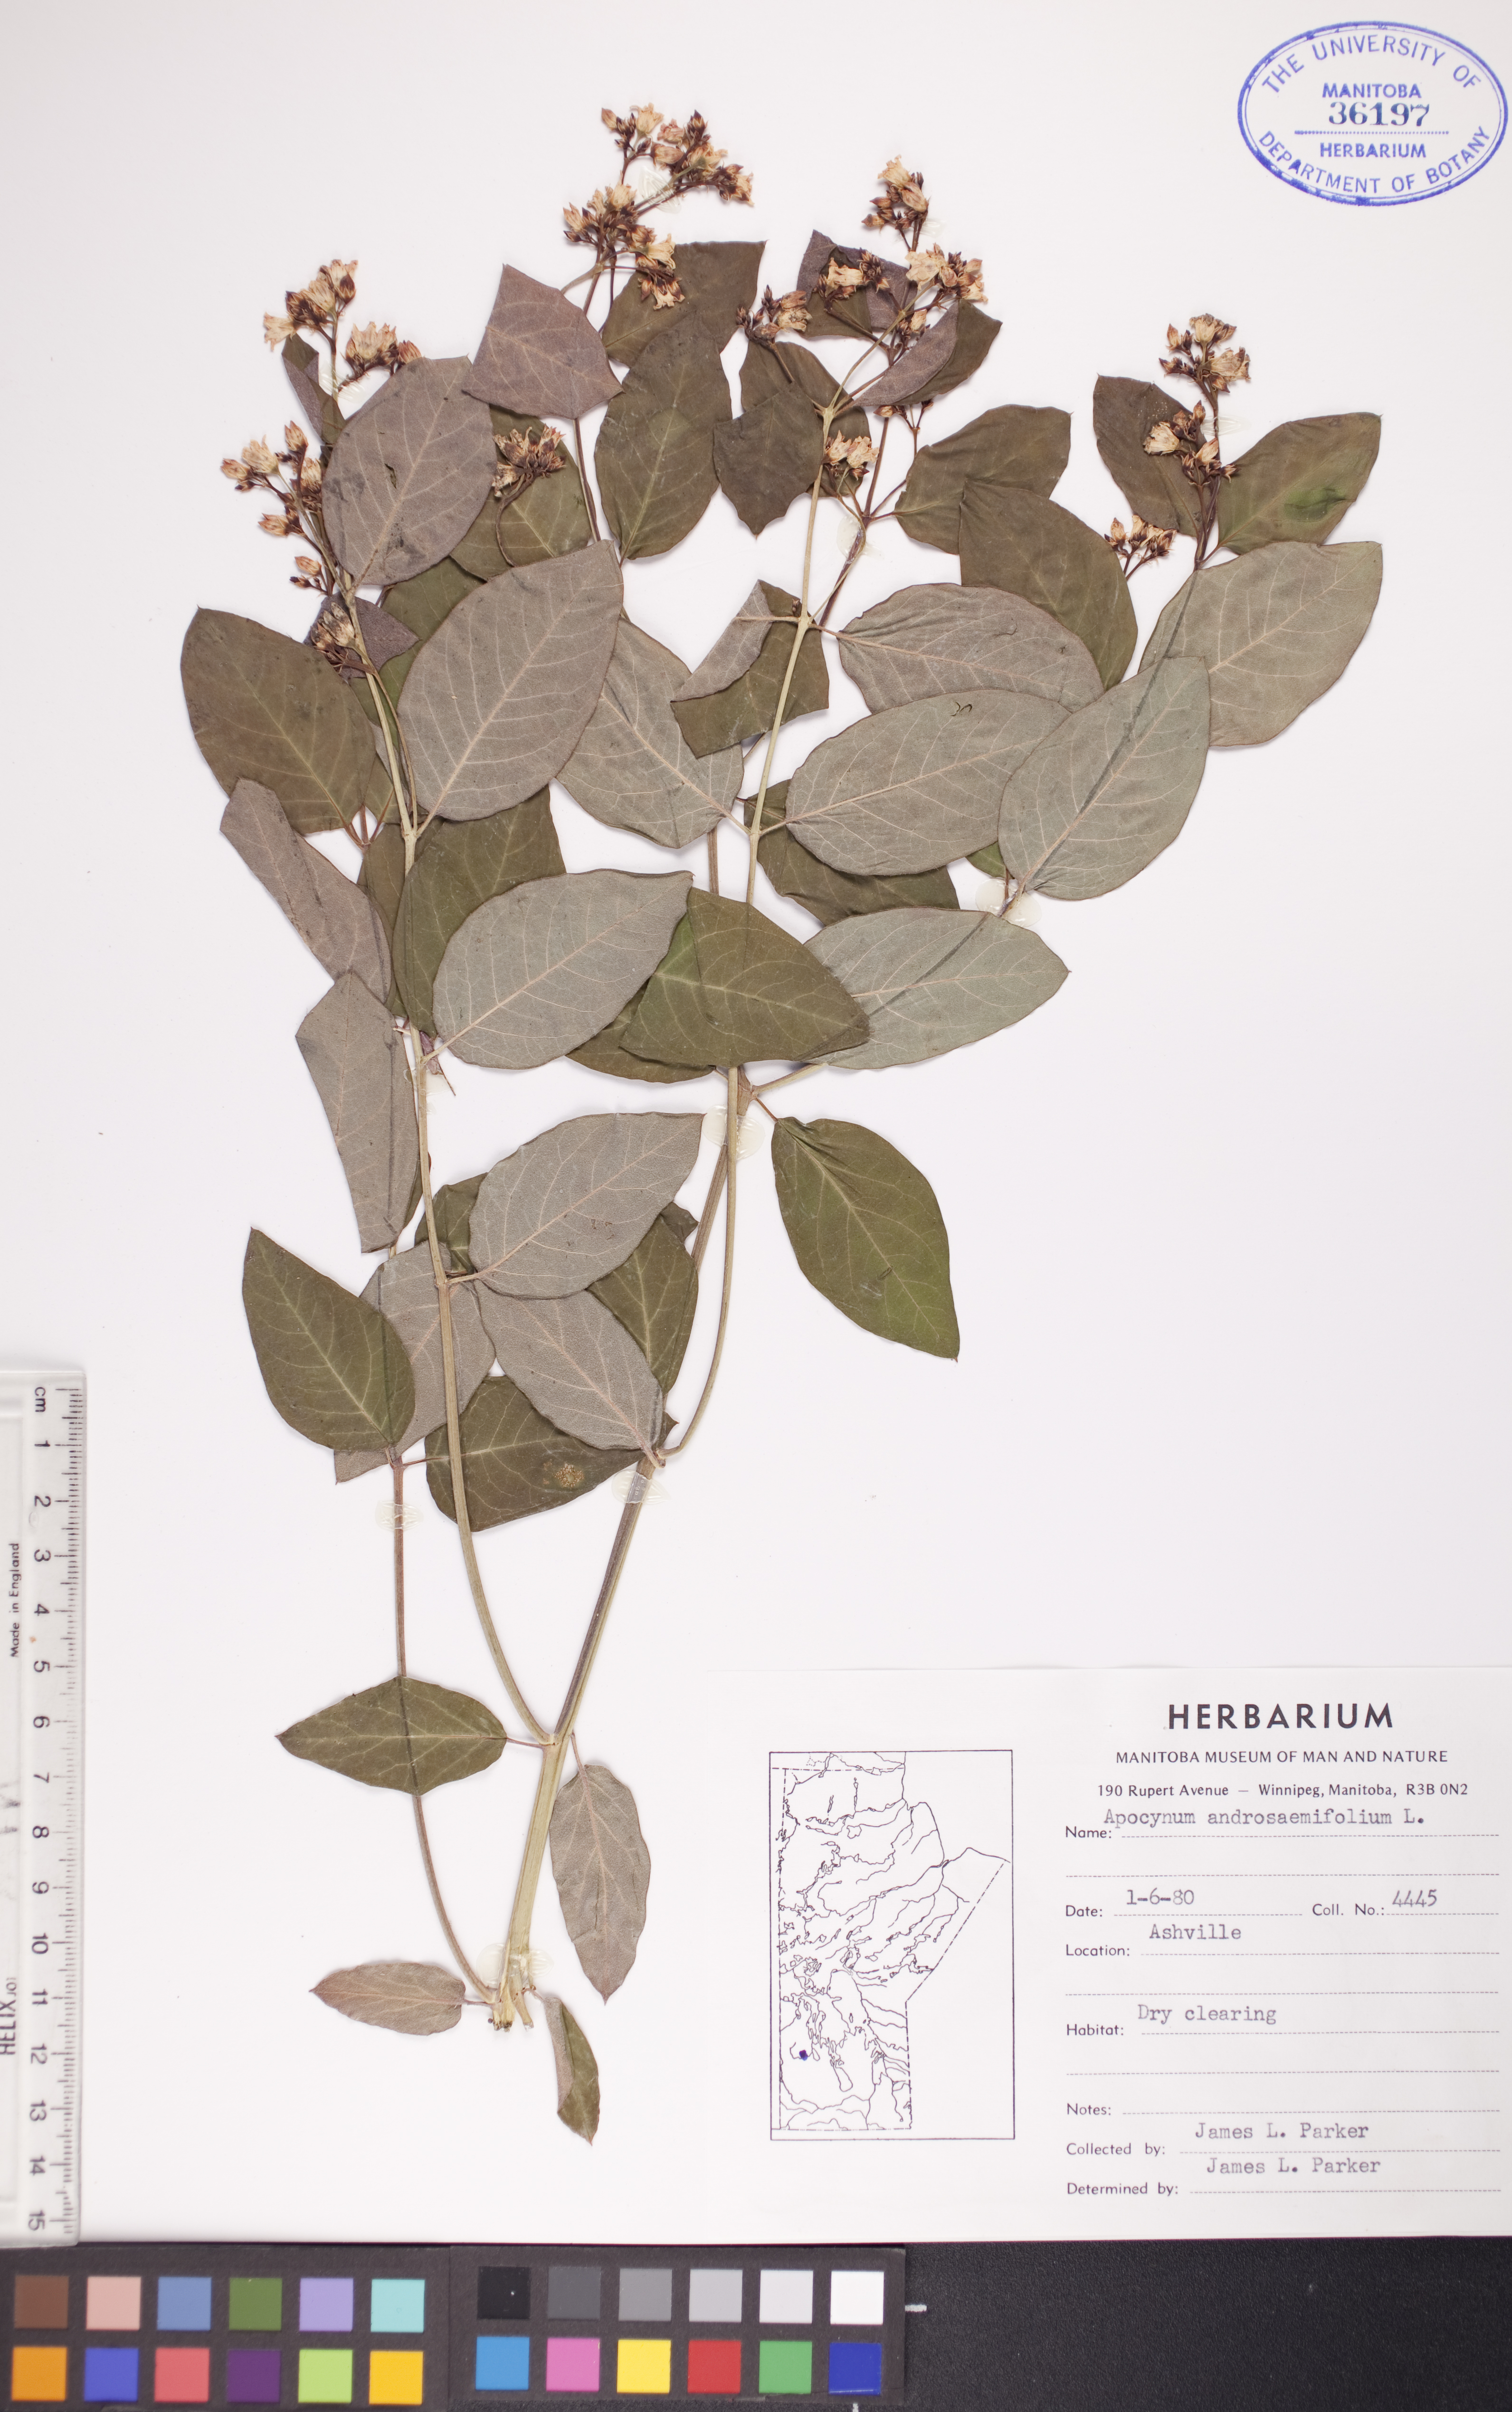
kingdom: Plantae
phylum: Tracheophyta
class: Magnoliopsida
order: Gentianales
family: Apocynaceae
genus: Apocynum
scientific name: Apocynum androsaemifolium
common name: Spreading dogbane
